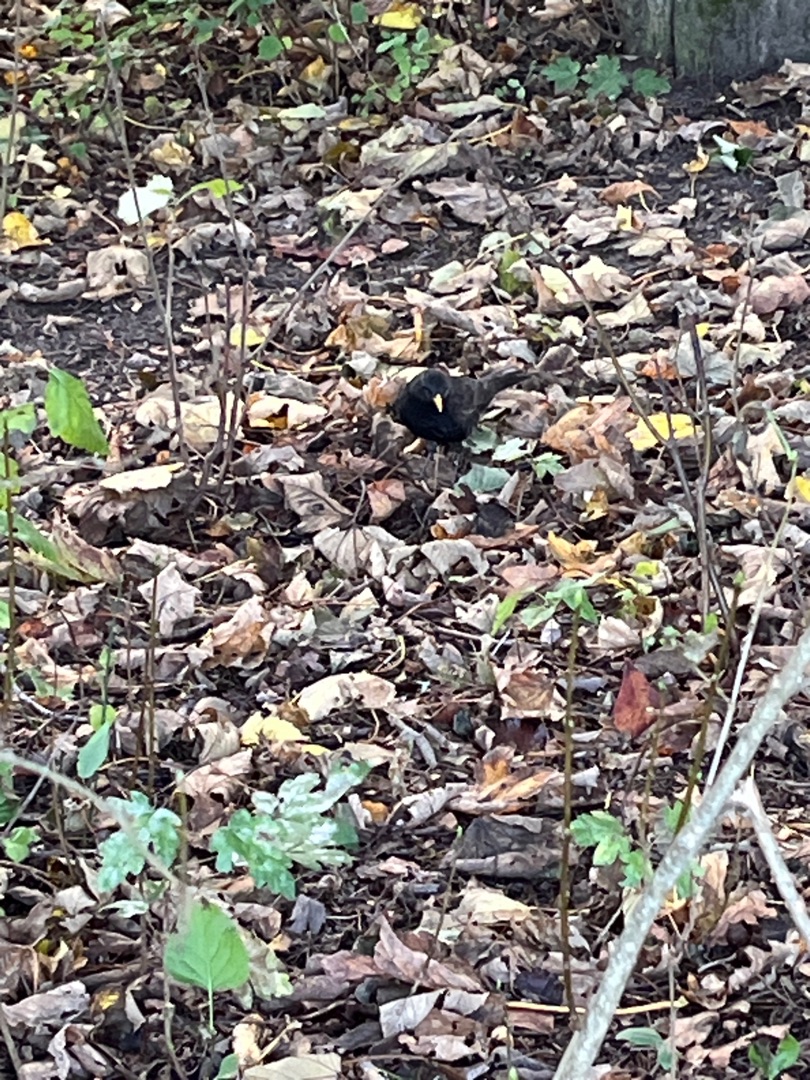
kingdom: Animalia
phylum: Chordata
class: Aves
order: Passeriformes
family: Turdidae
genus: Turdus
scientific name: Turdus merula
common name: Solsort
